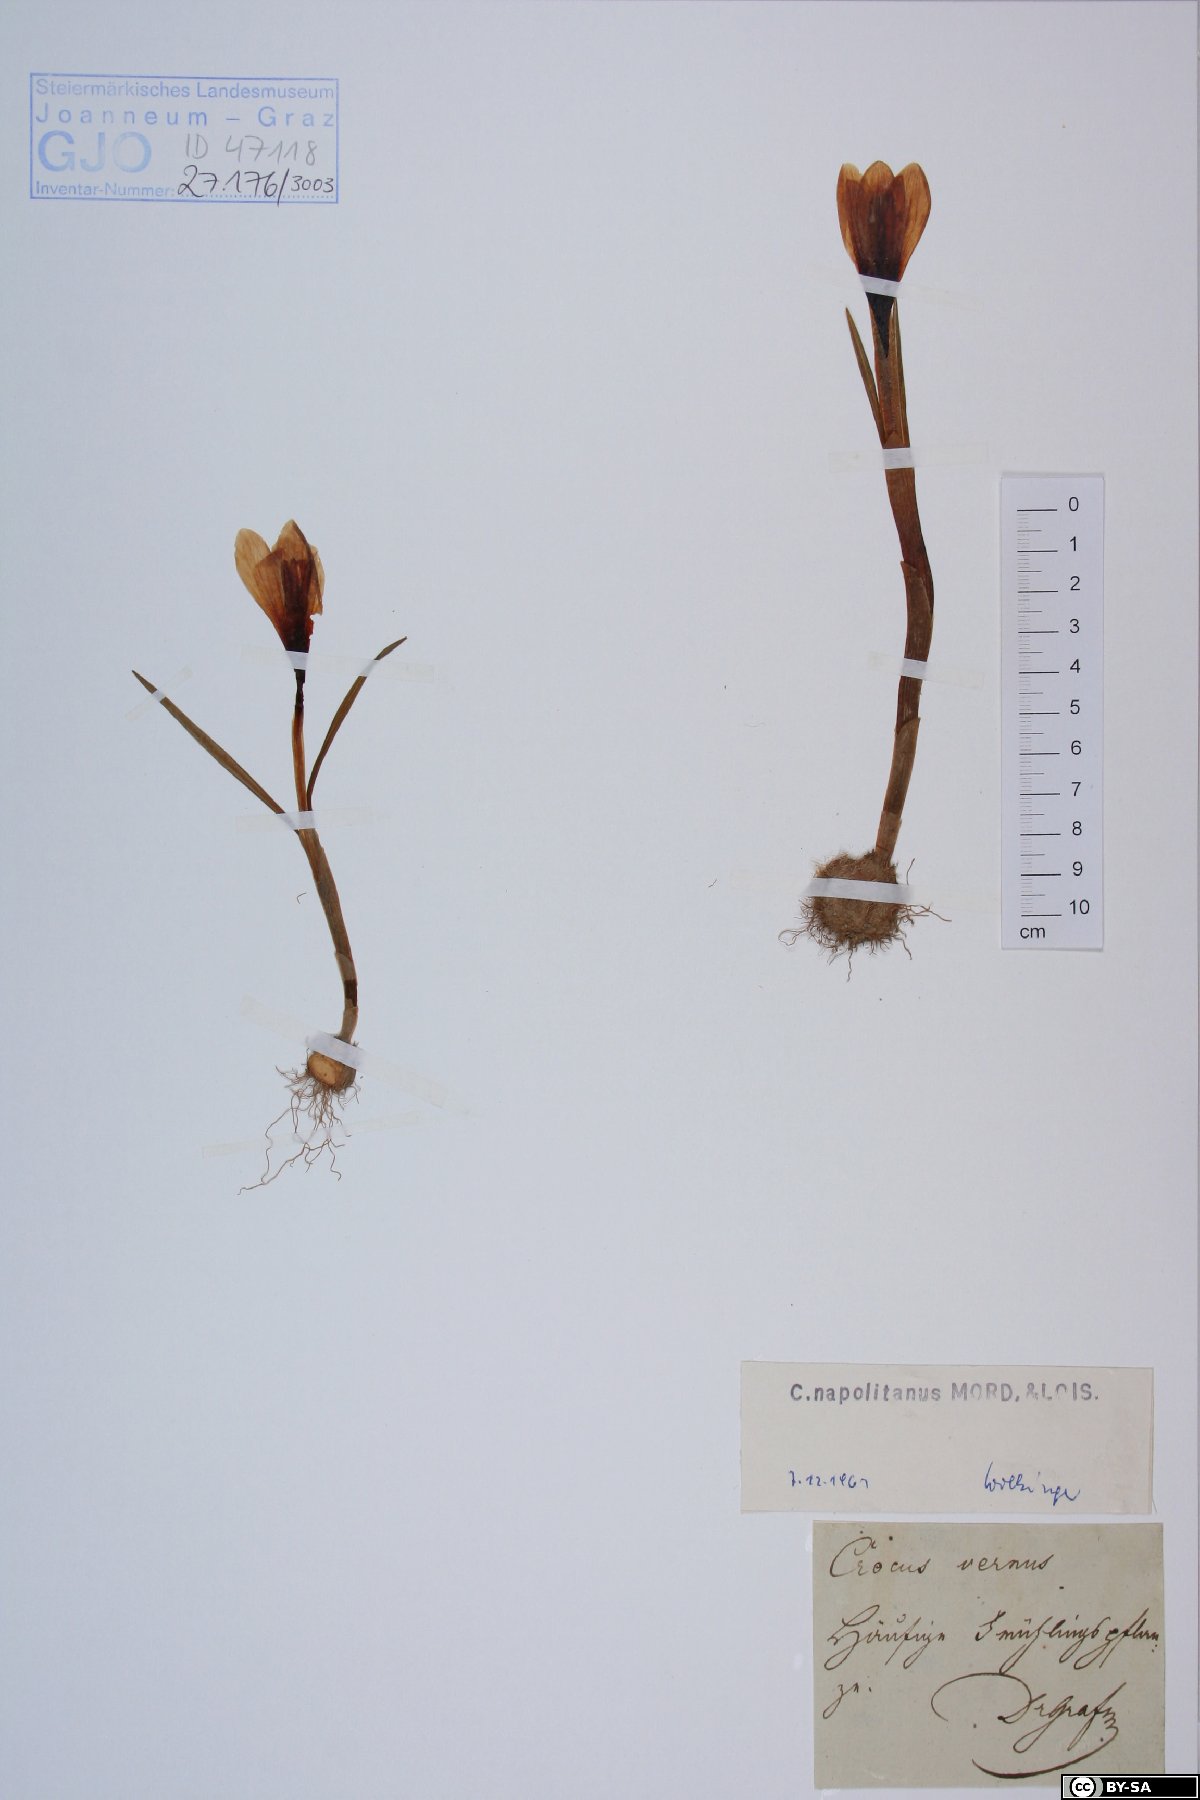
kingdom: Plantae
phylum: Tracheophyta
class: Liliopsida
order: Asparagales
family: Iridaceae
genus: Crocus
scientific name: Crocus vernus
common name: Spring crocus
